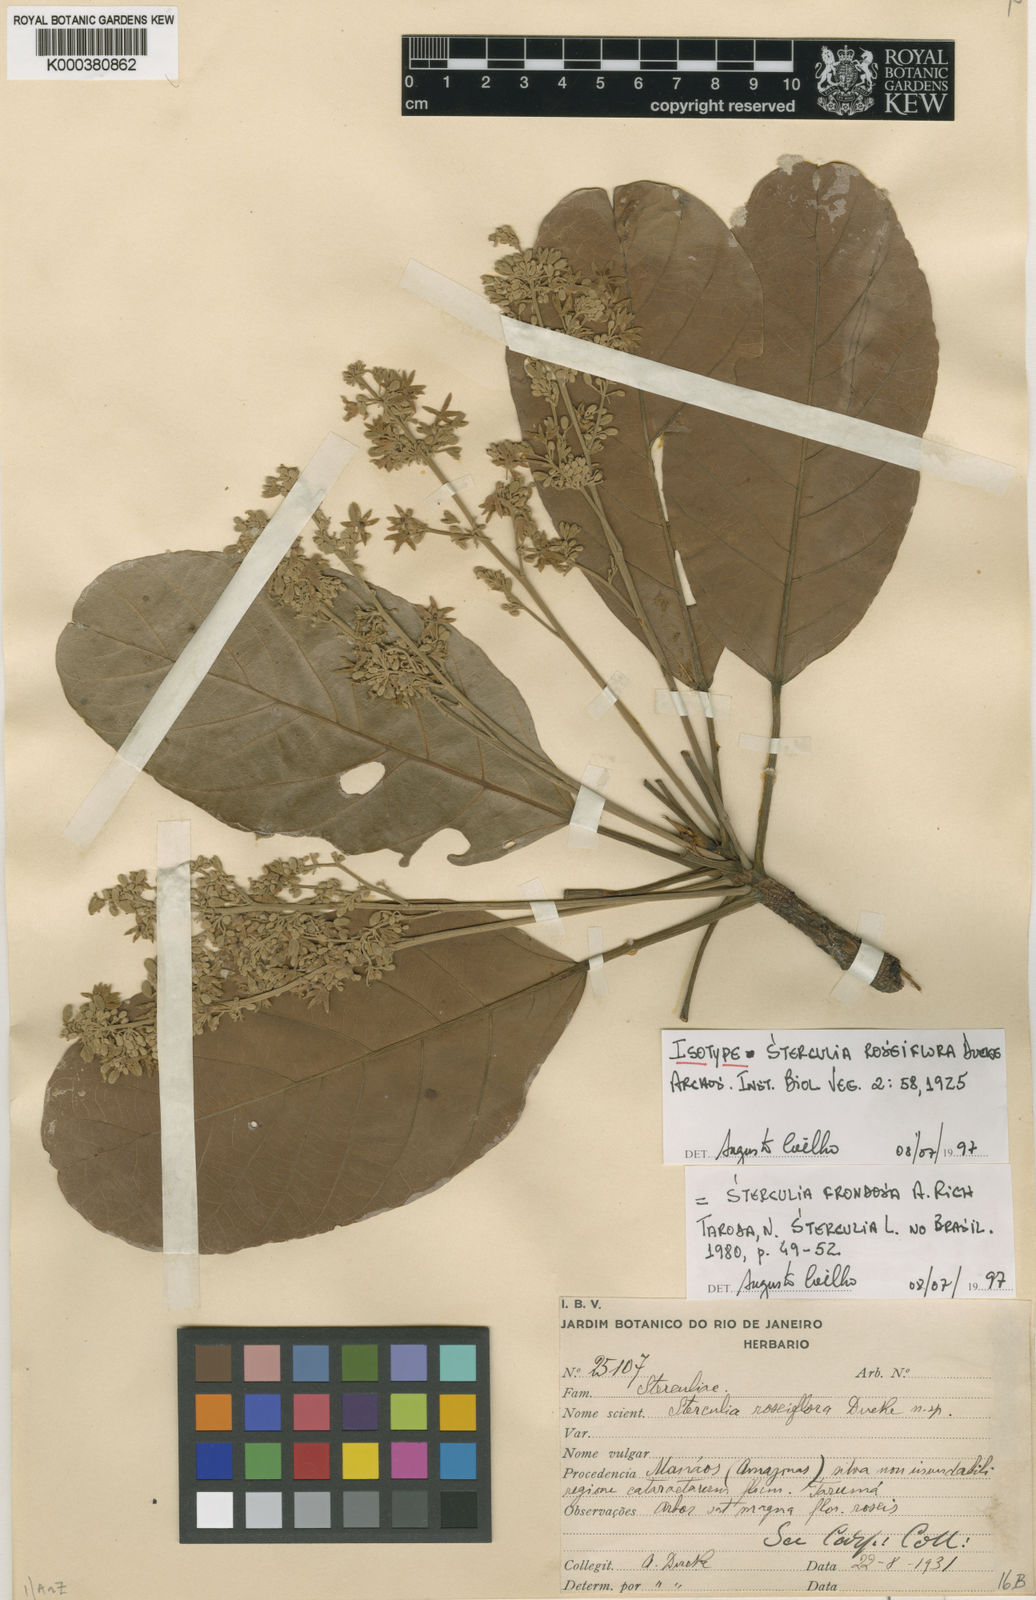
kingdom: Plantae
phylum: Tracheophyta
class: Magnoliopsida
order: Malvales
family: Malvaceae
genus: Sterculia
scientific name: Sterculia frondosa
